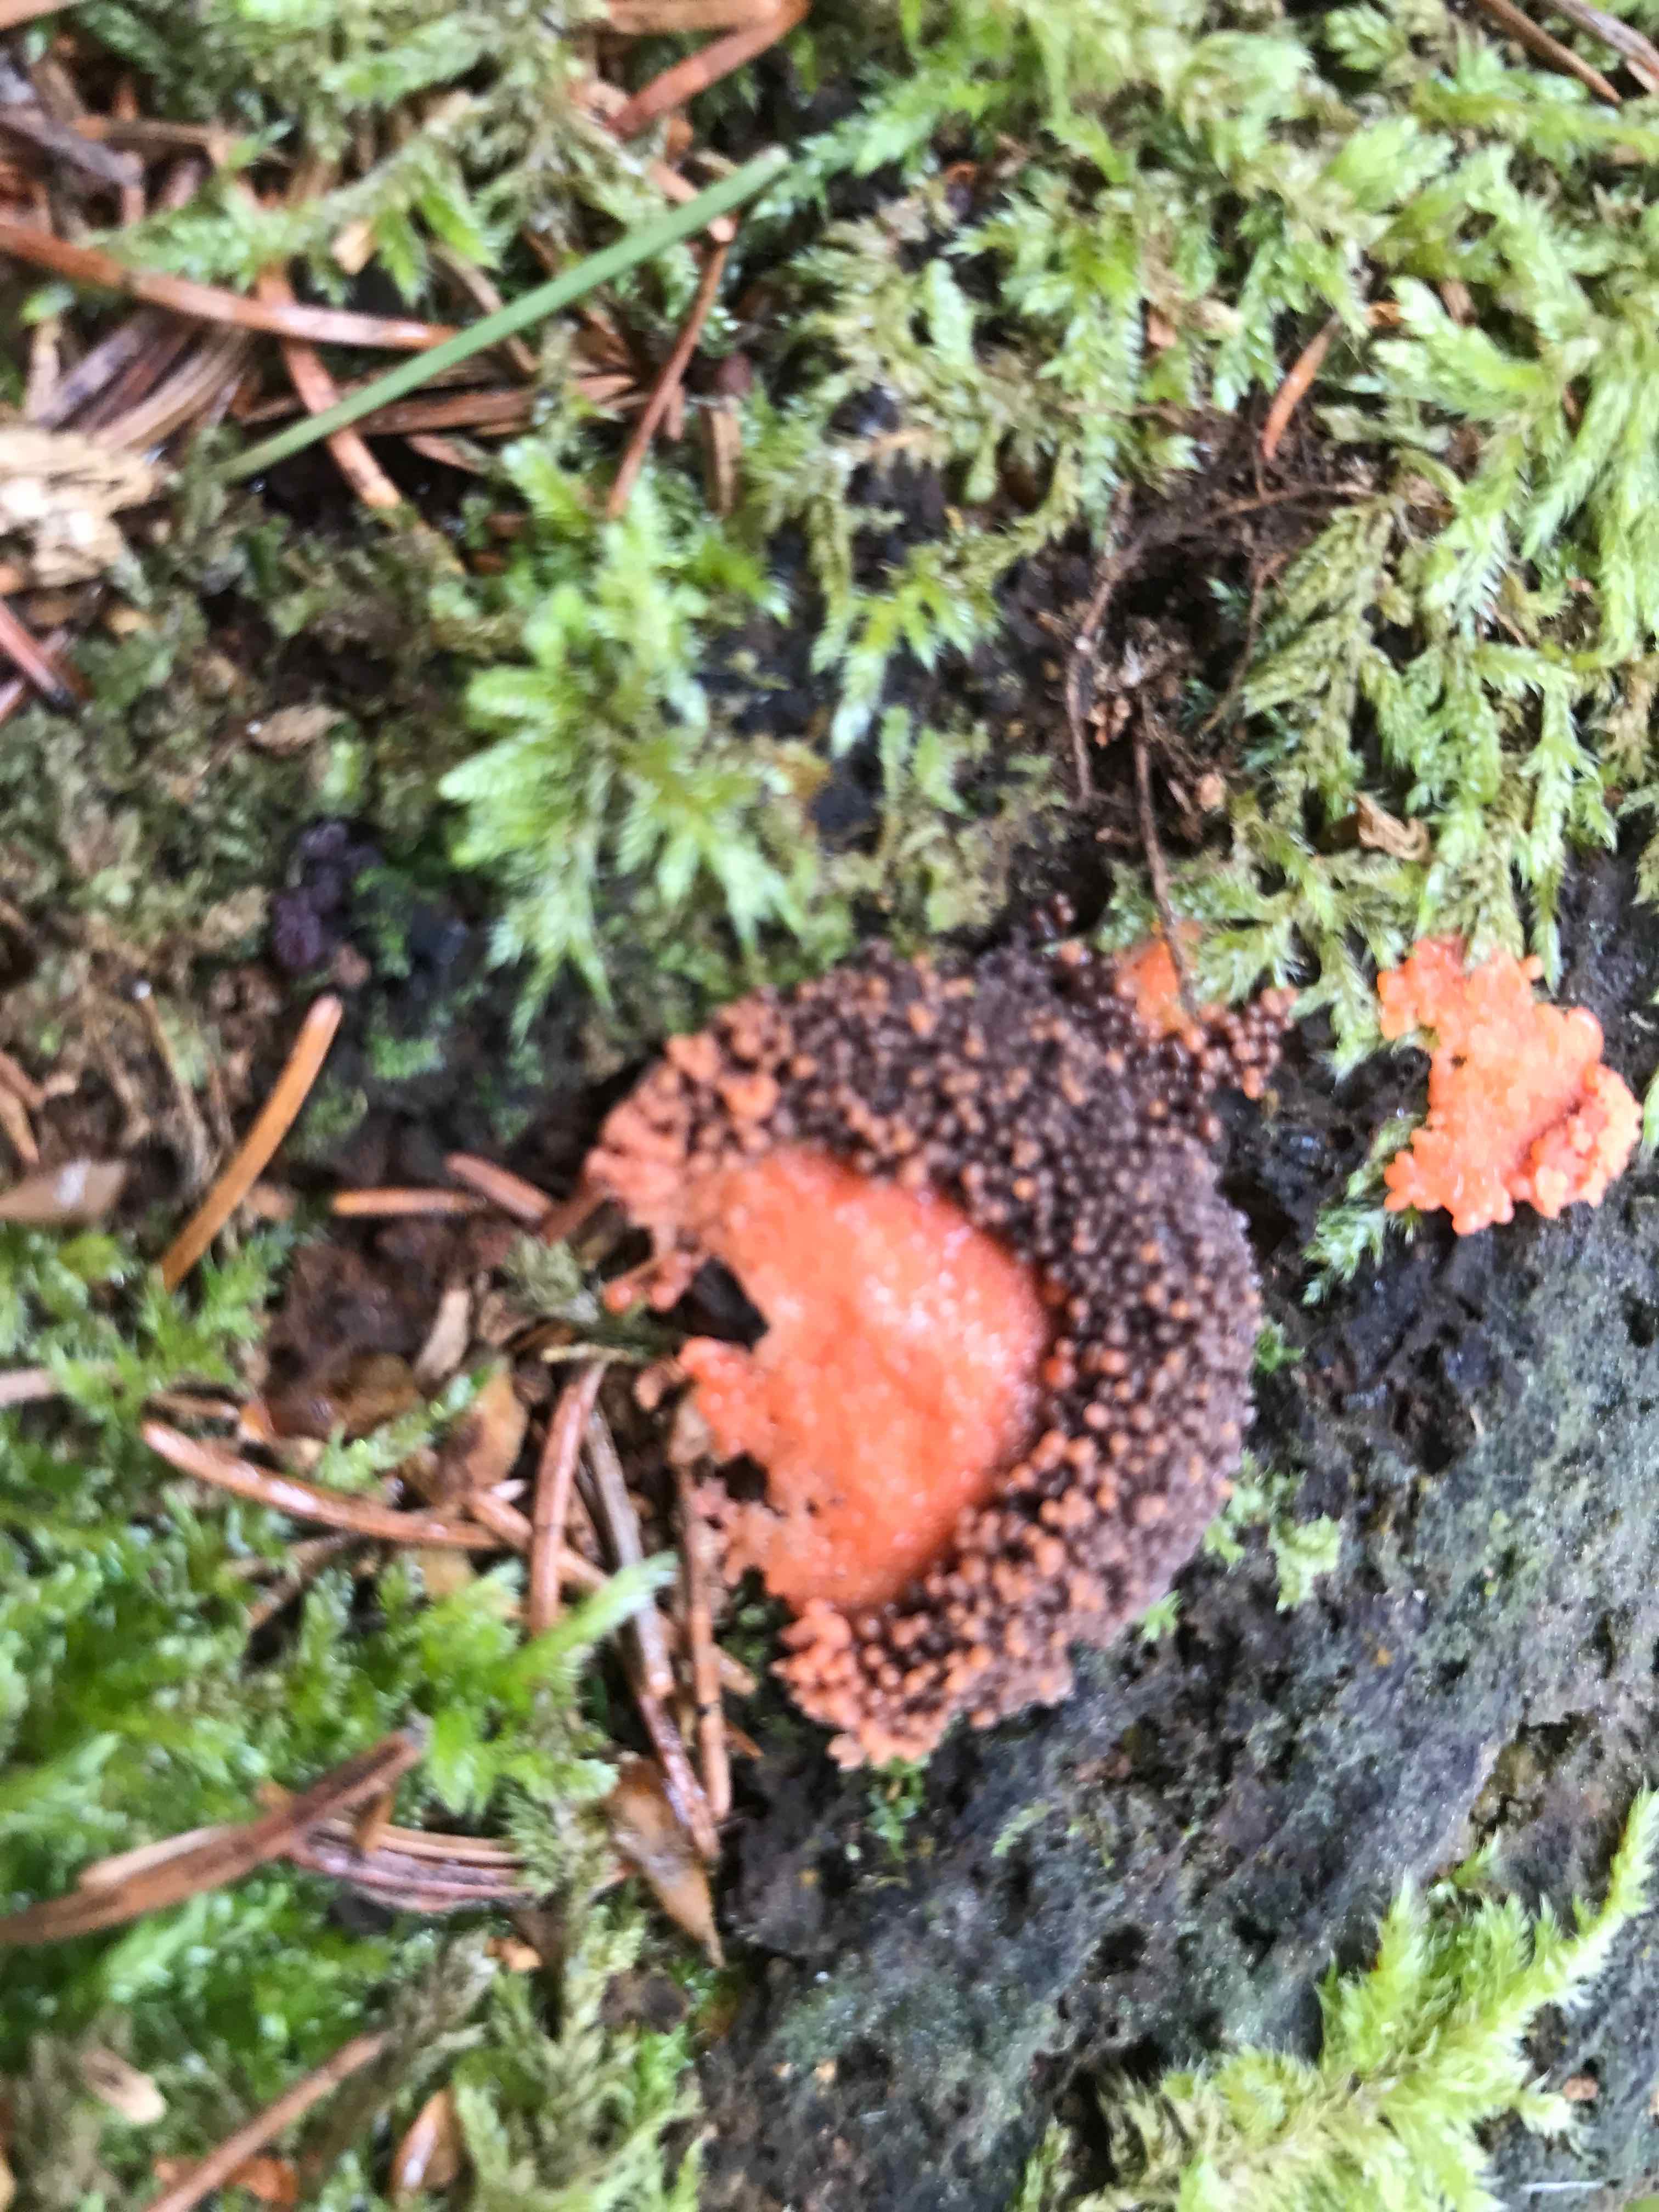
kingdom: Protozoa
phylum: Mycetozoa
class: Myxomycetes
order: Cribrariales
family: Tubiferaceae
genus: Tubifera
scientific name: Tubifera ferruginosa
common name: kanel-støvrør
